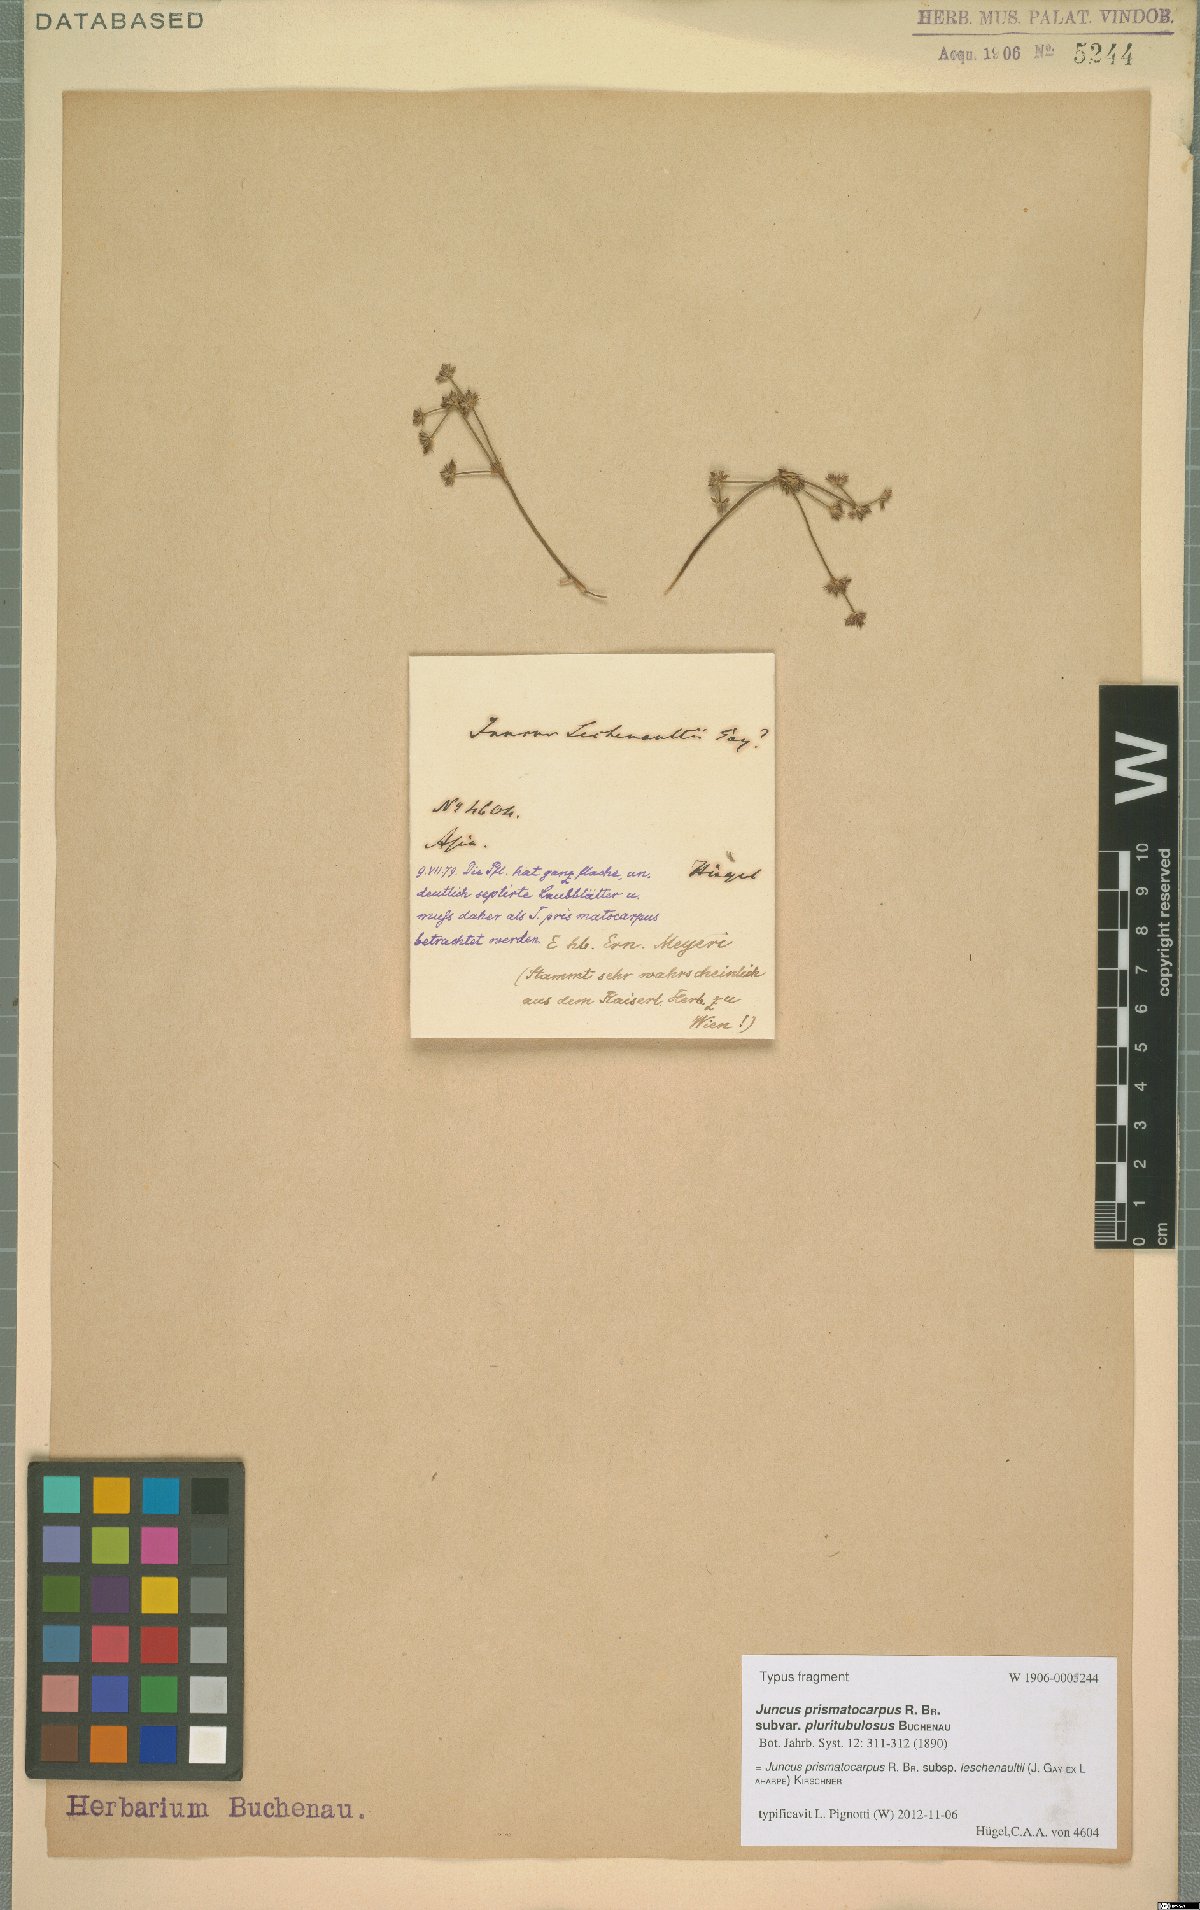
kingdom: Plantae
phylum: Tracheophyta
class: Liliopsida
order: Poales
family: Juncaceae
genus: Juncus
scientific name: Juncus prismatocarpus
